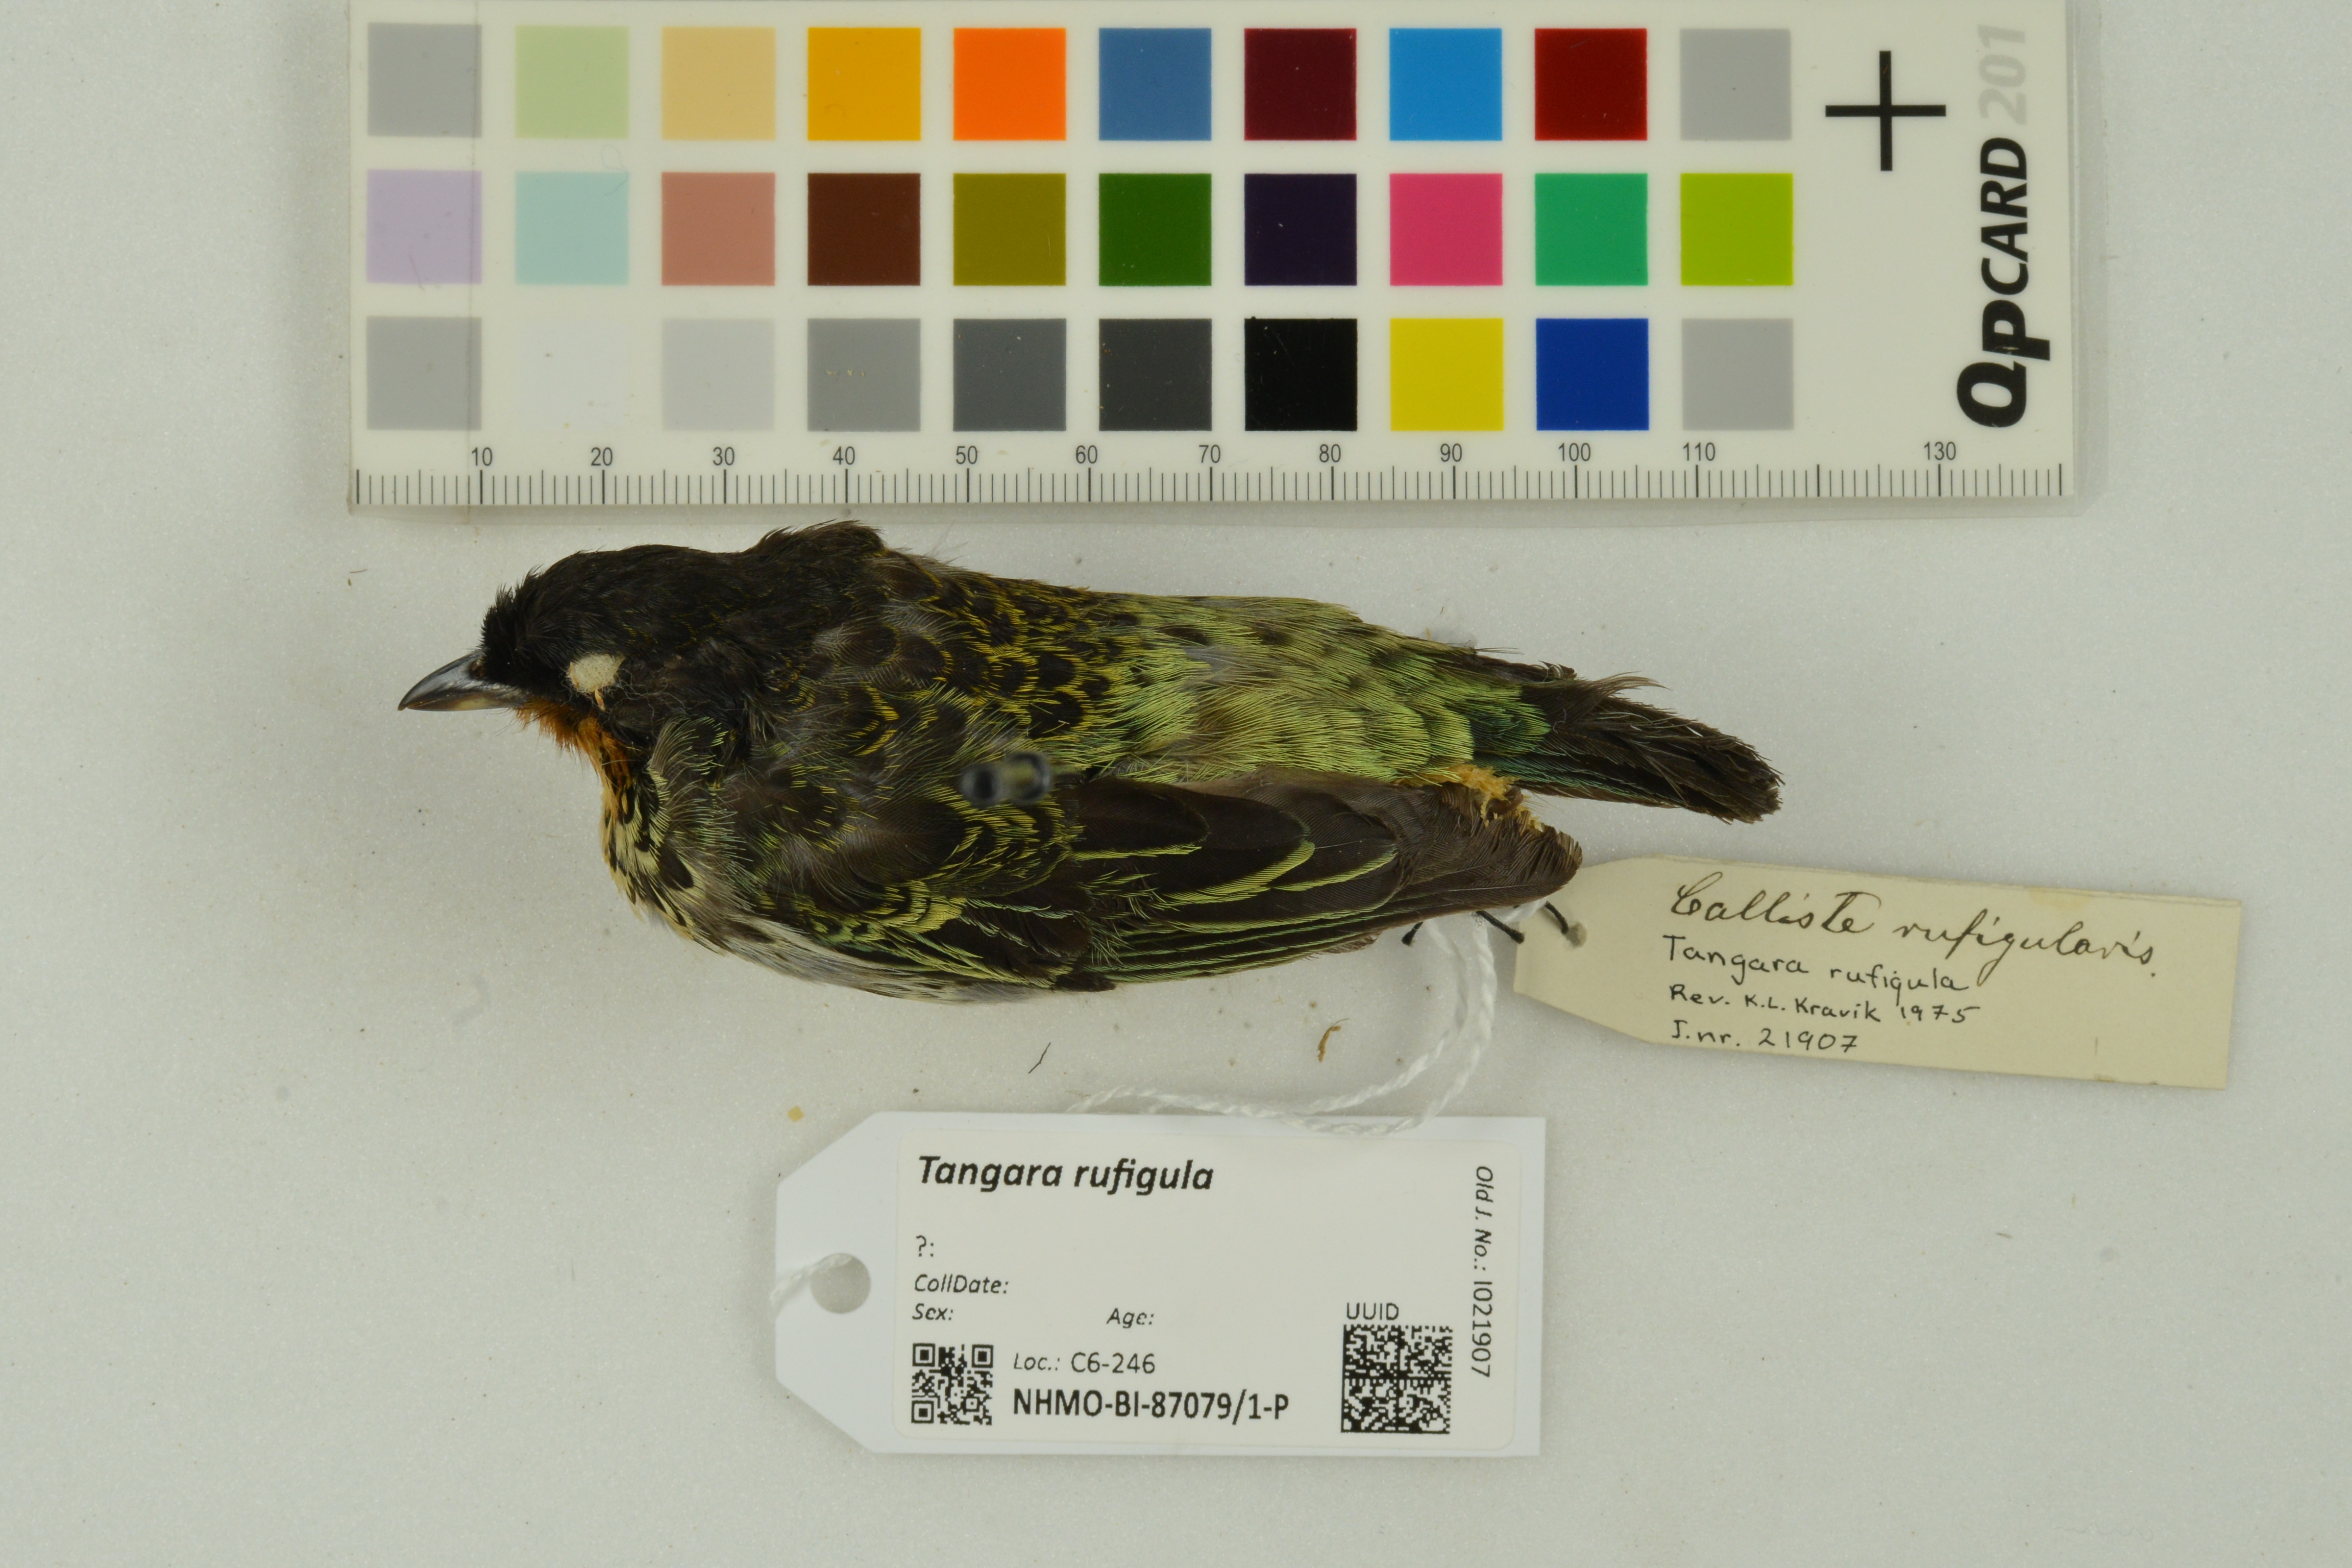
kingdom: Animalia
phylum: Chordata
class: Aves
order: Passeriformes
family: Thraupidae
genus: Ixothraupis
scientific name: Ixothraupis rufigula
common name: Rufous-throated tanager
